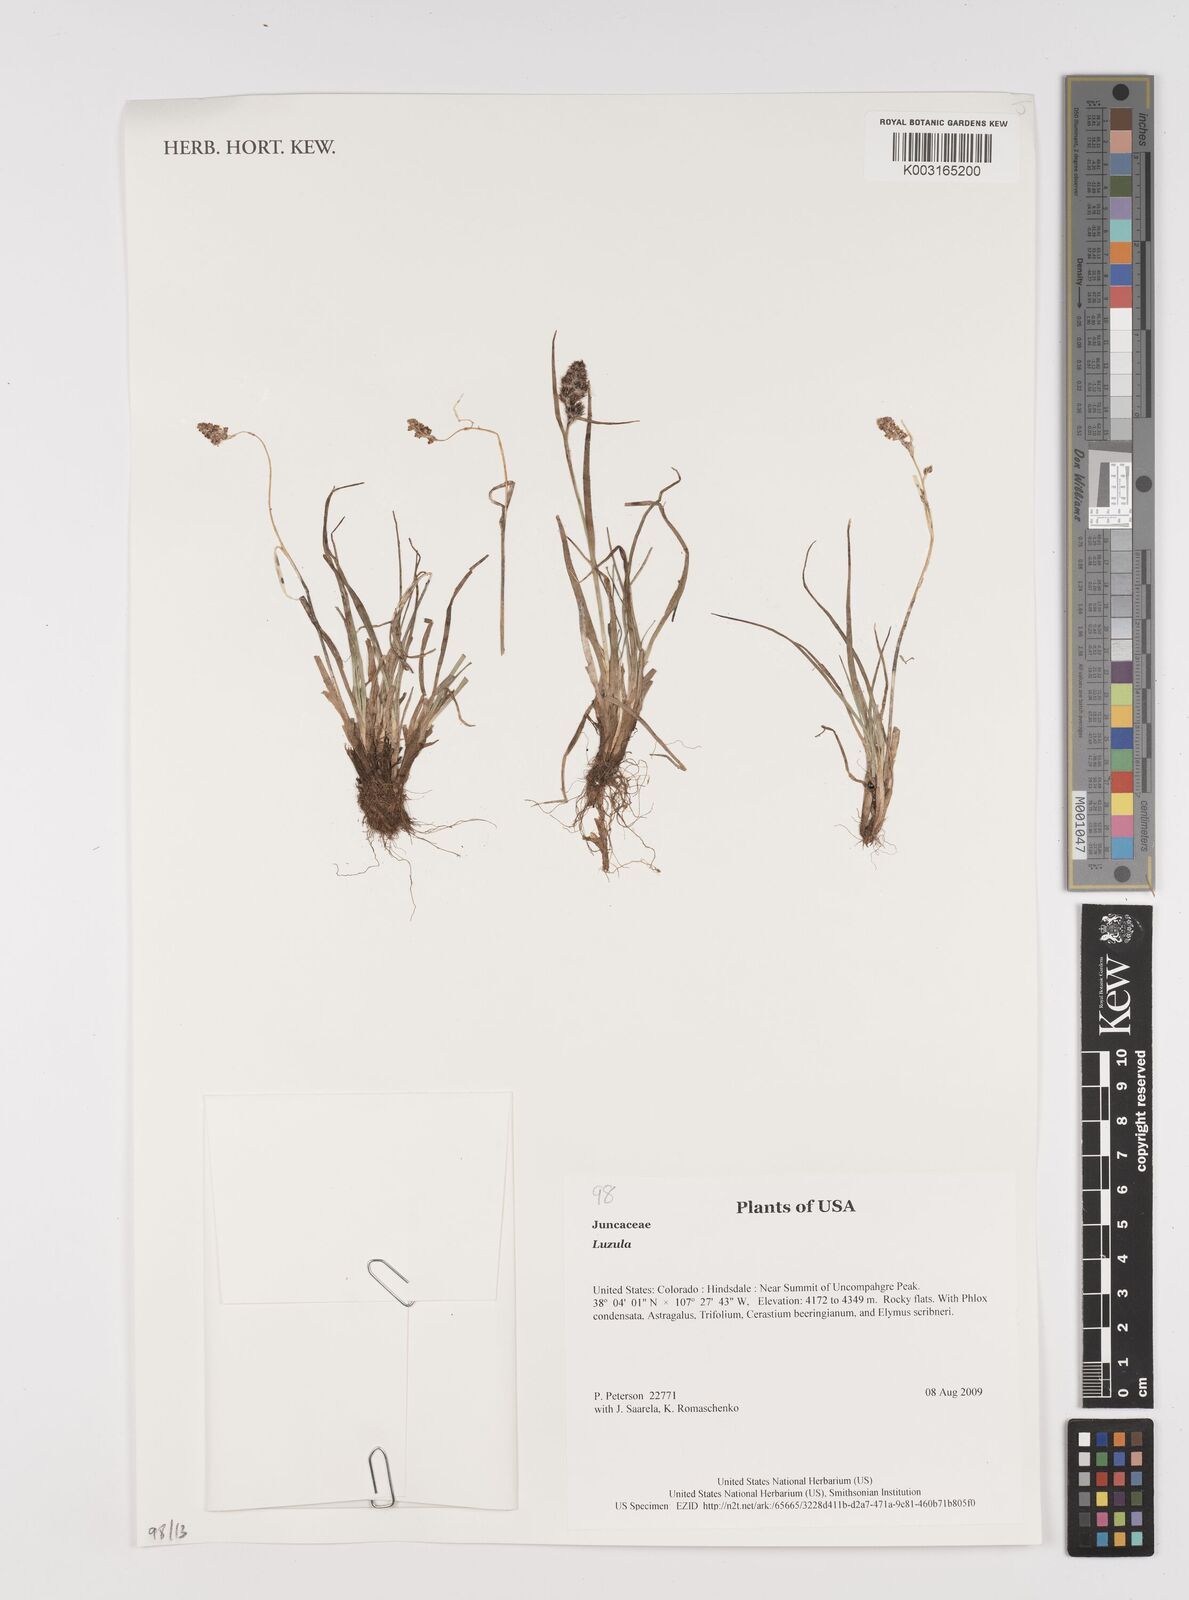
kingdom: Plantae
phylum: Tracheophyta
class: Liliopsida
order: Poales
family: Juncaceae
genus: Luzula
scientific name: Luzula
